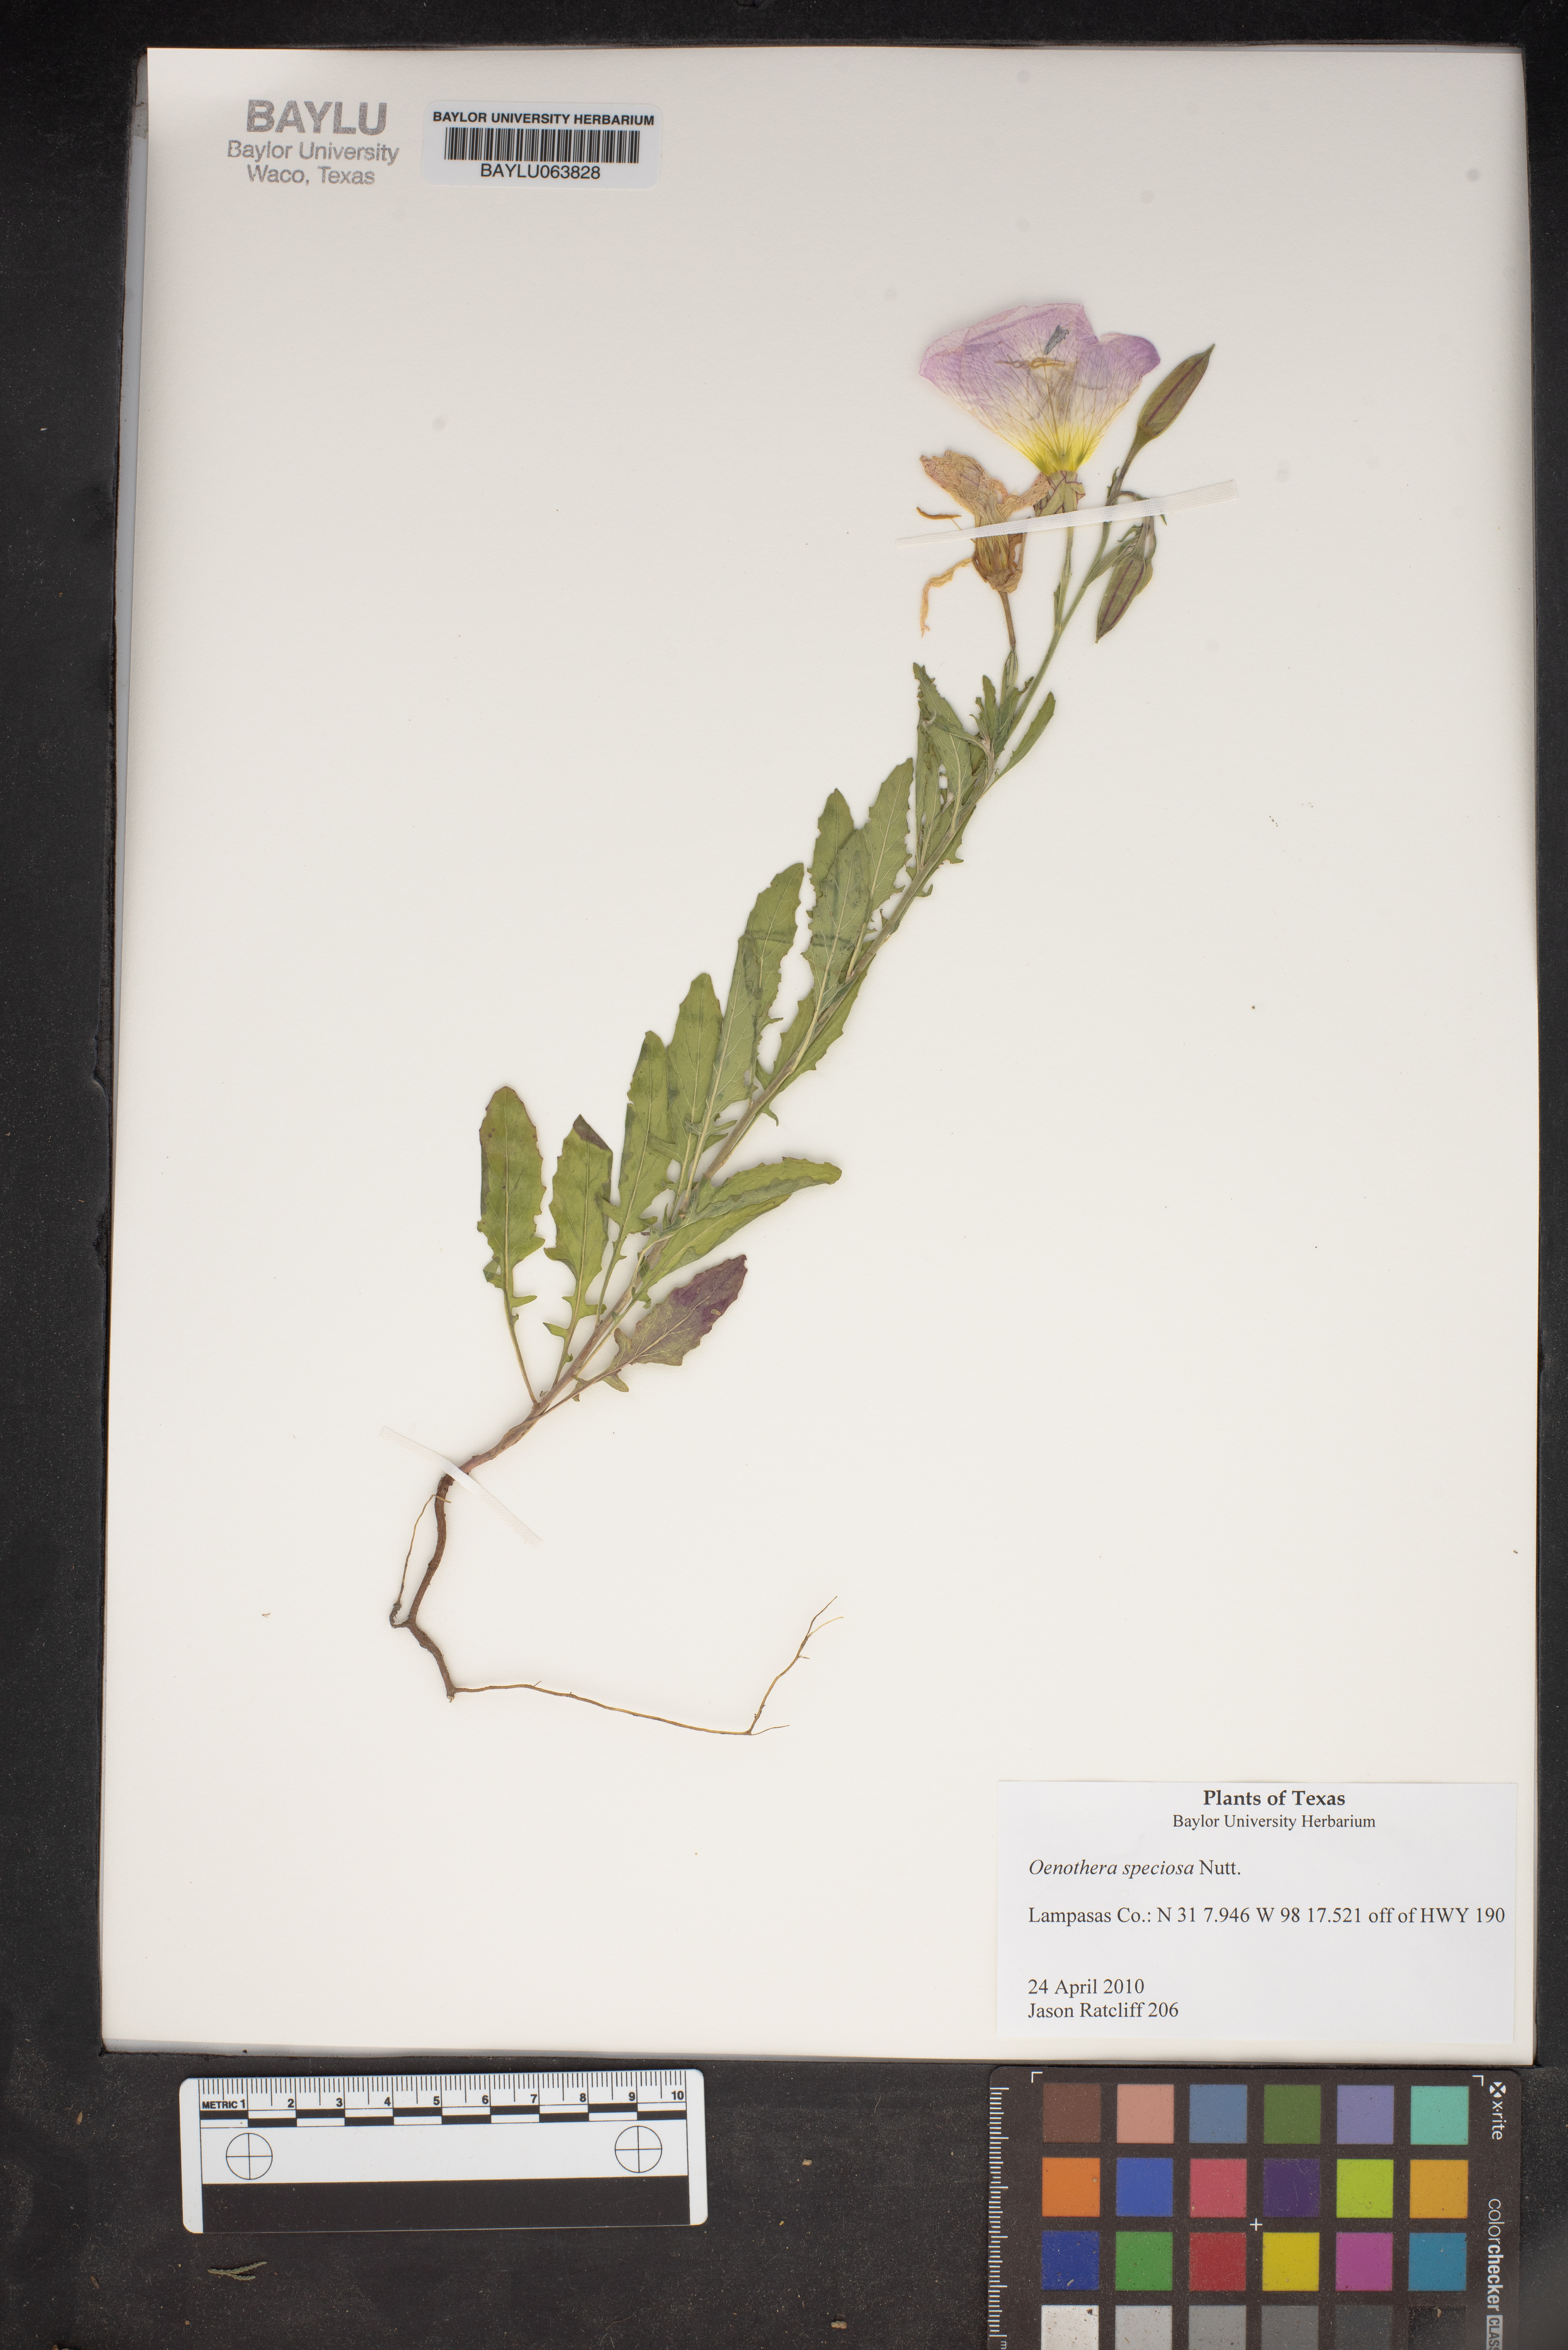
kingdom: Plantae
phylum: Tracheophyta
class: Magnoliopsida
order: Myrtales
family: Onagraceae
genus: Oenothera
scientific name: Oenothera speciosa
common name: White evening-primrose
